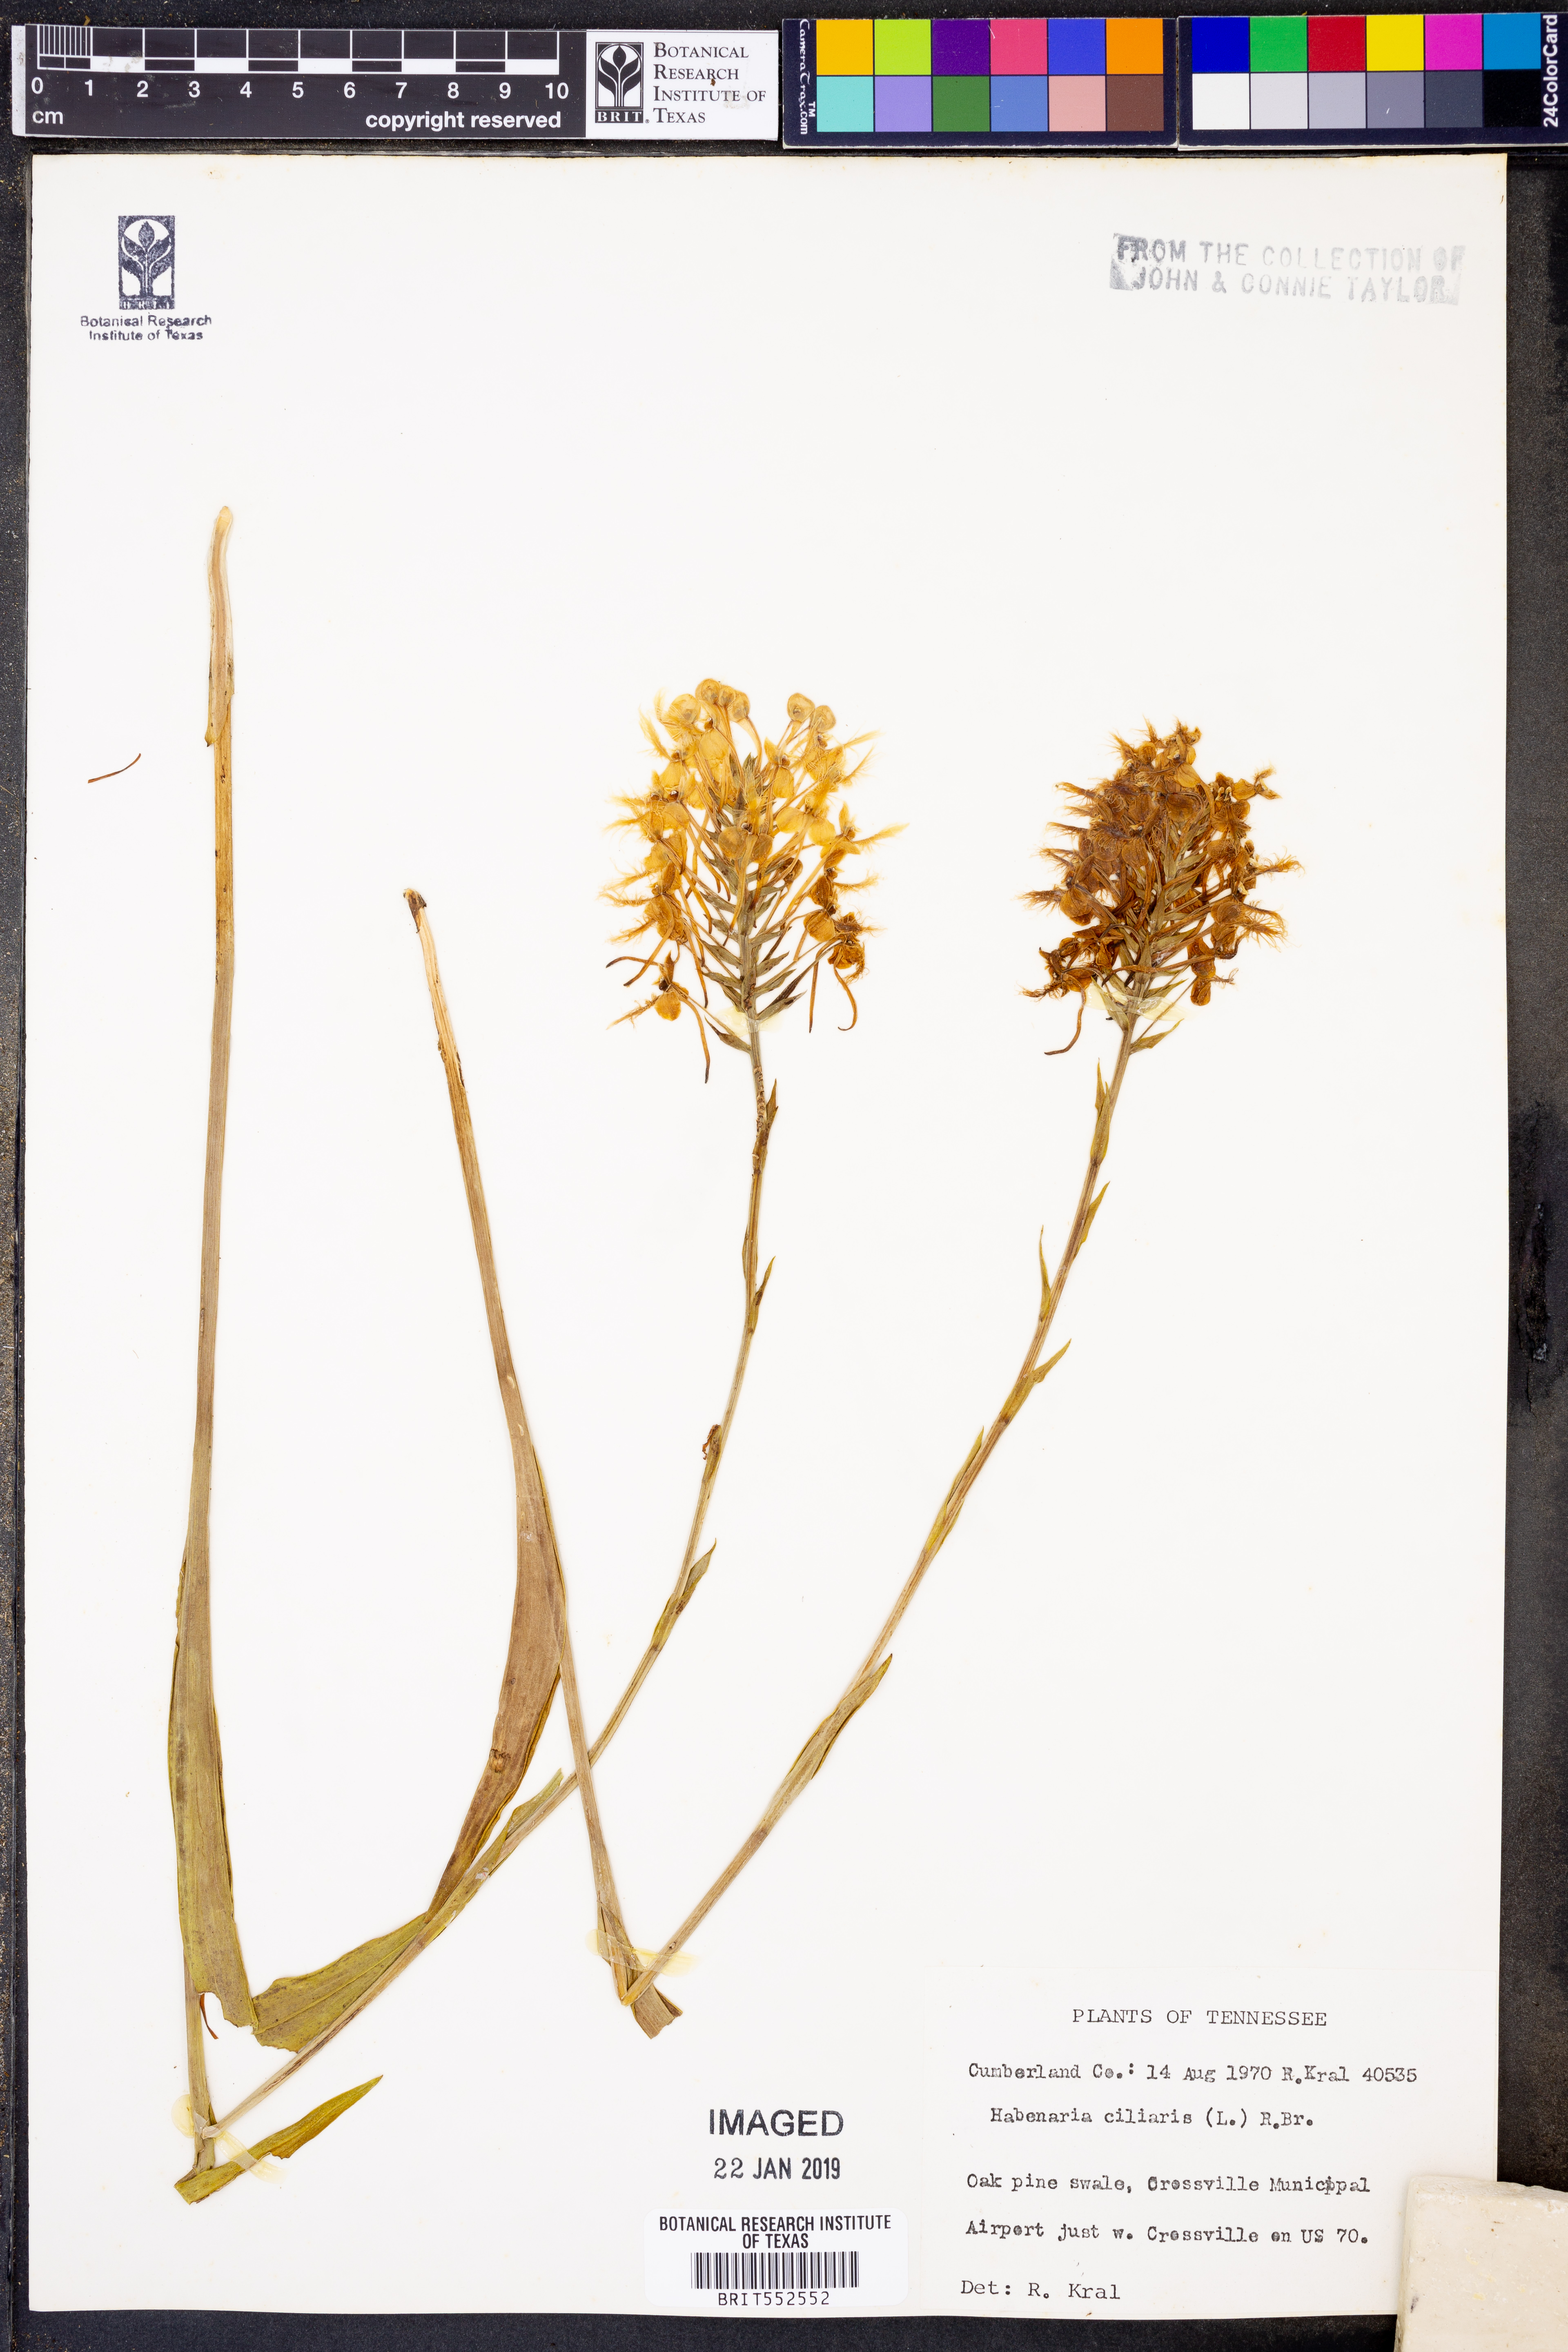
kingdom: Plantae
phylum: Tracheophyta
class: Liliopsida
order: Asparagales
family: Orchidaceae
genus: Platanthera
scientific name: Platanthera ciliaris
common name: Yellow fringed orchid
